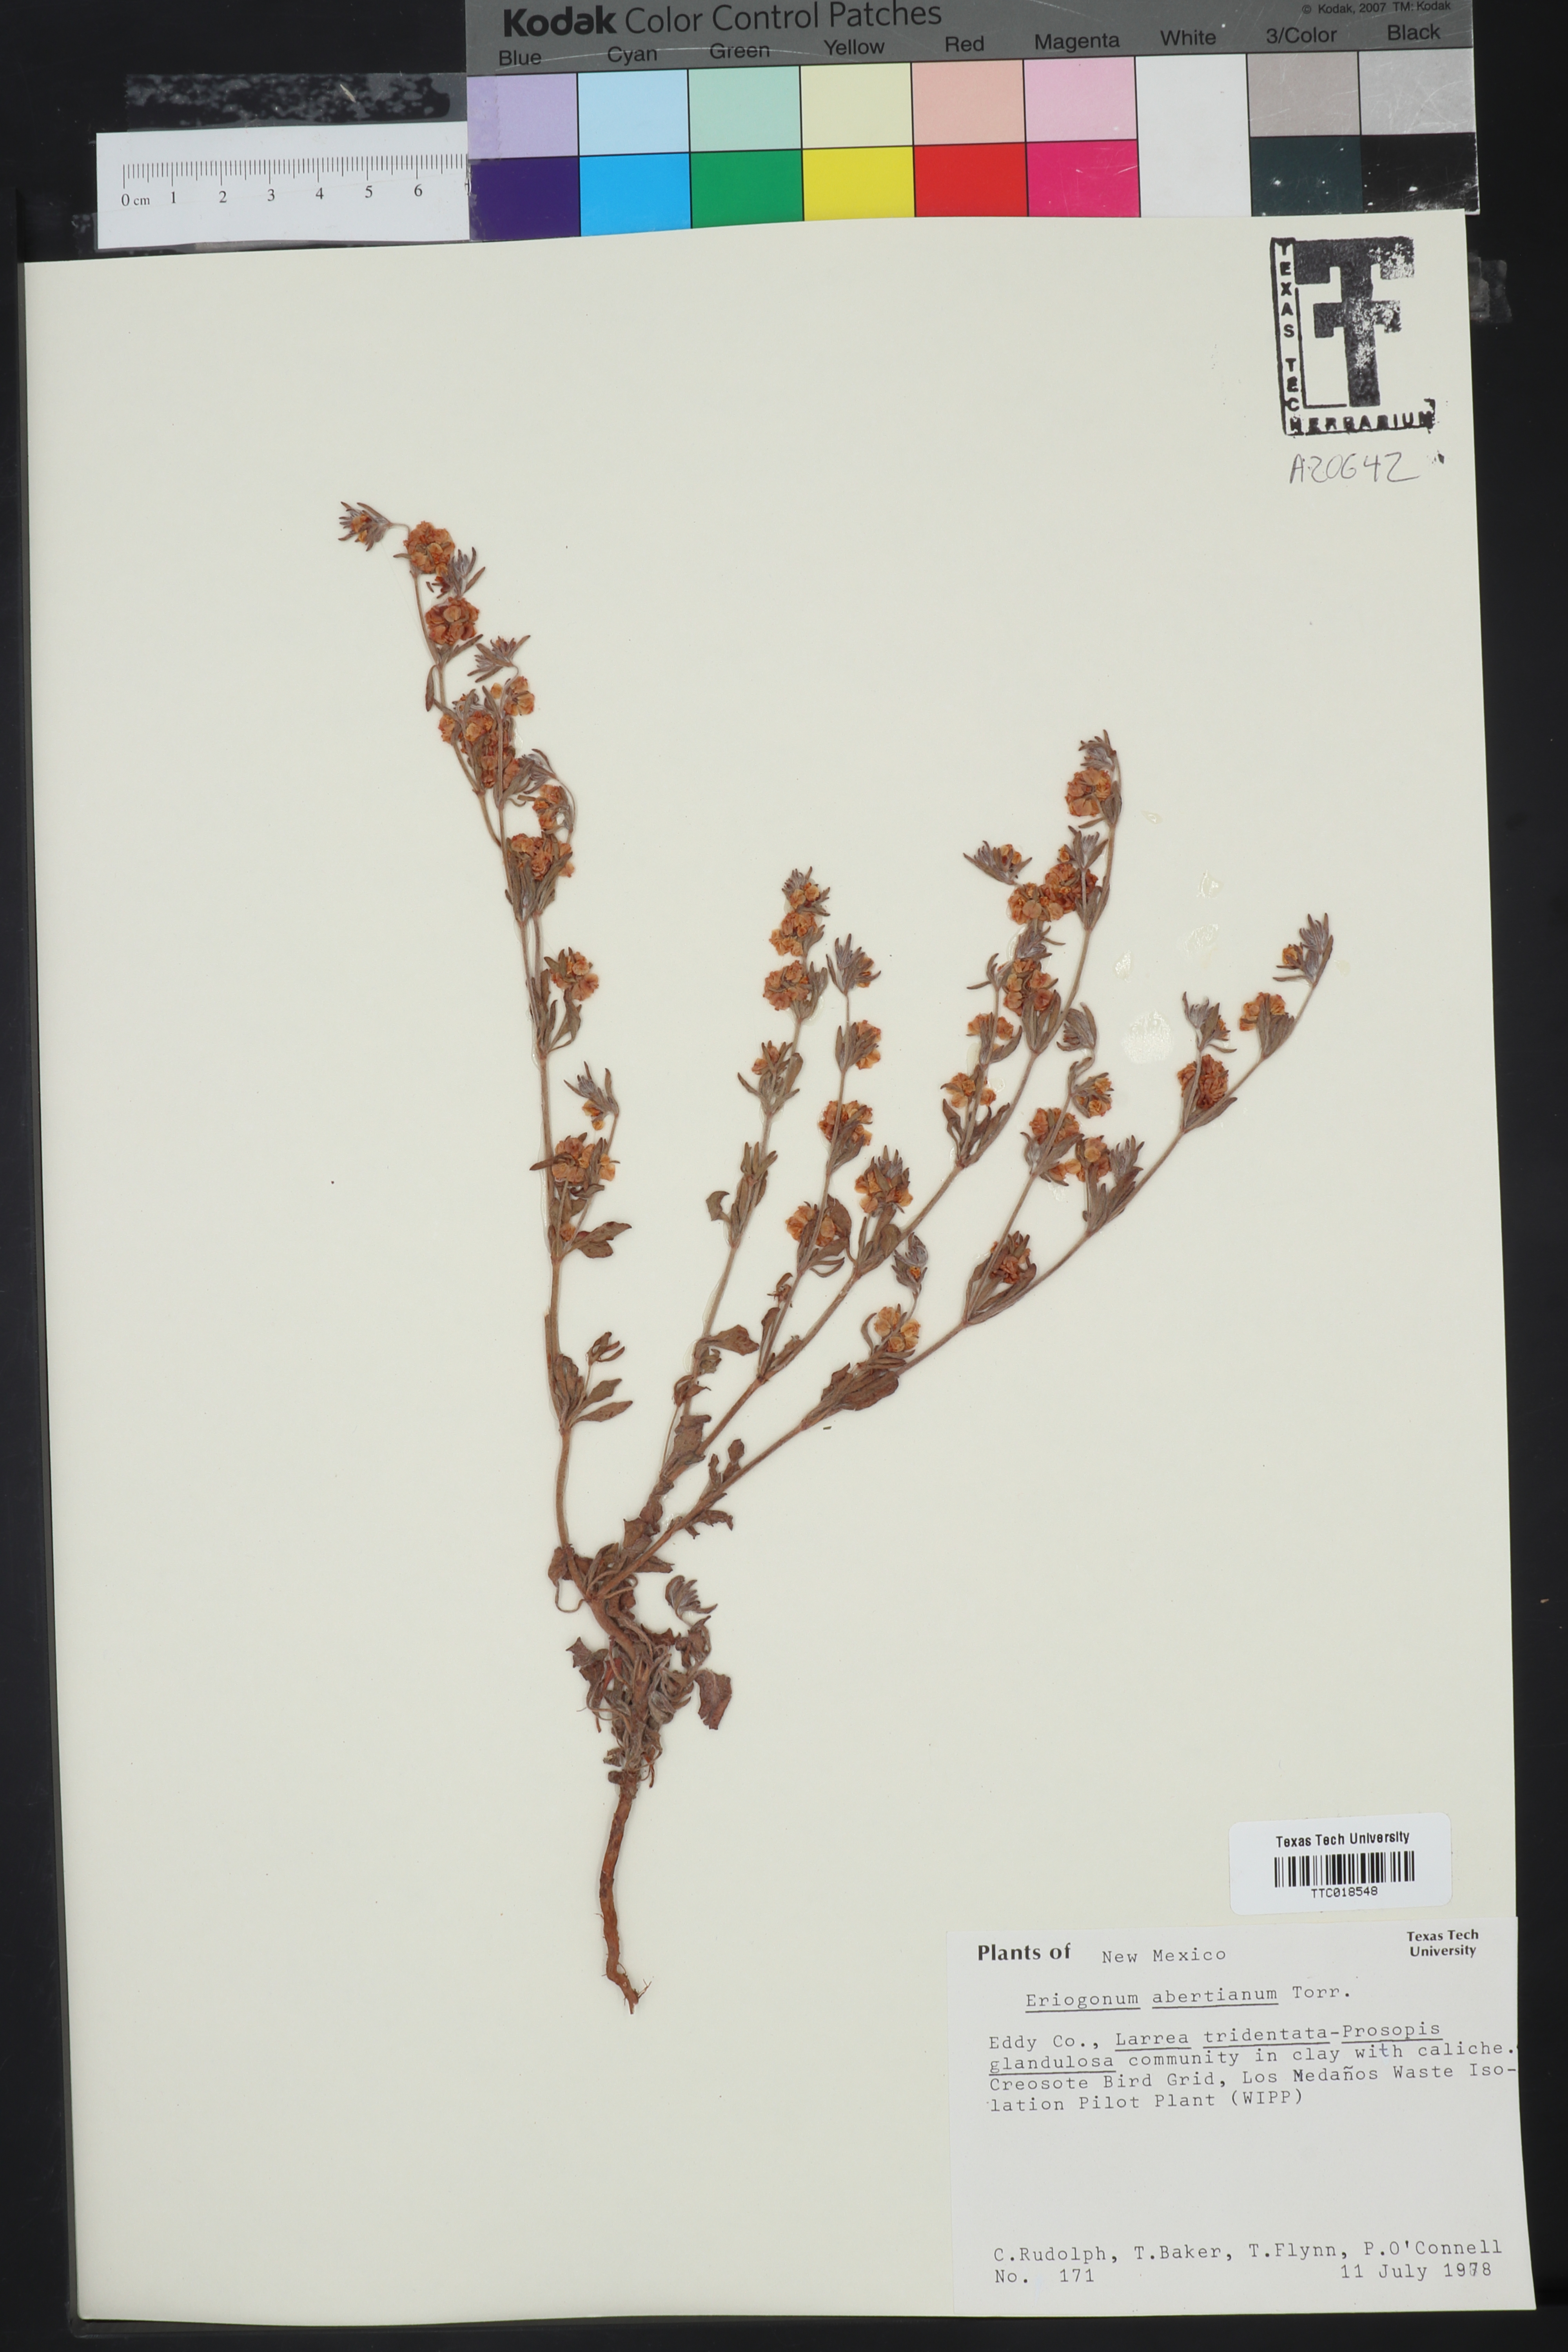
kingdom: Plantae
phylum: Tracheophyta
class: Magnoliopsida
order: Caryophyllales
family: Polygonaceae
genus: Eriogonum
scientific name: Eriogonum abertianum
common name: Abert's wild buckwheat
